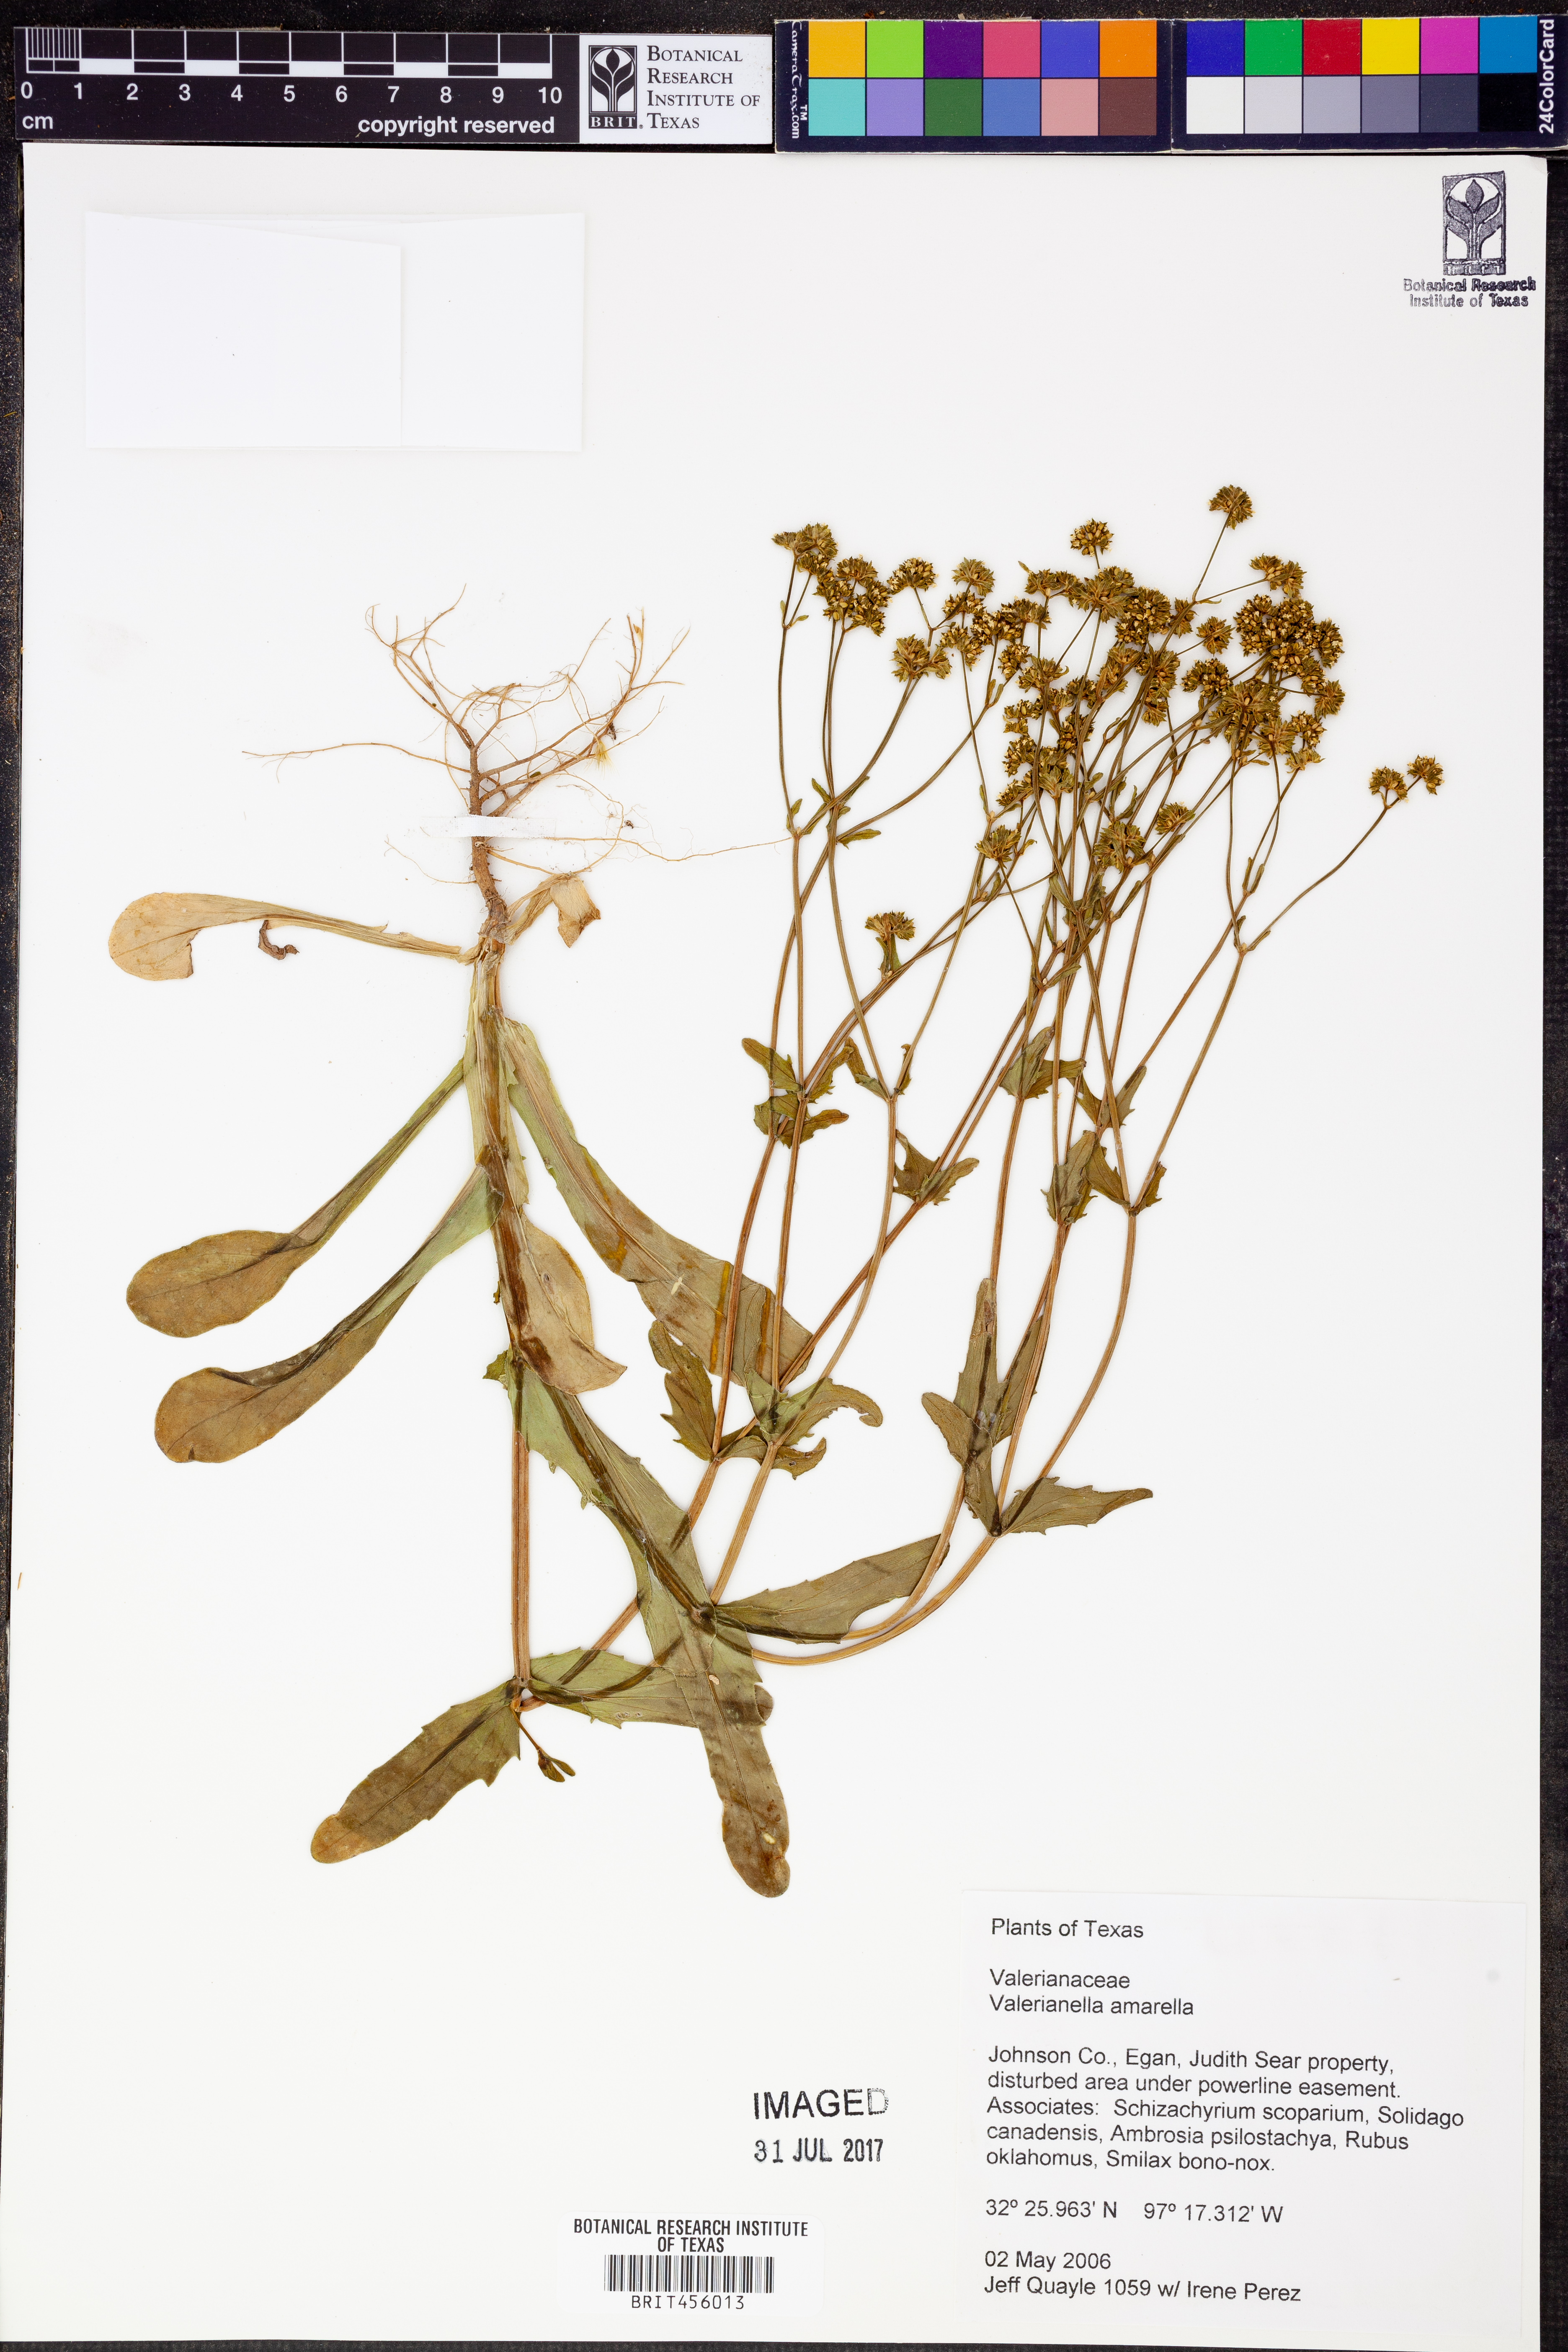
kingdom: Plantae
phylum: Tracheophyta
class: Magnoliopsida
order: Dipsacales
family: Caprifoliaceae
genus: Valerianella
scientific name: Valerianella amarella
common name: Hariy cornsalad
